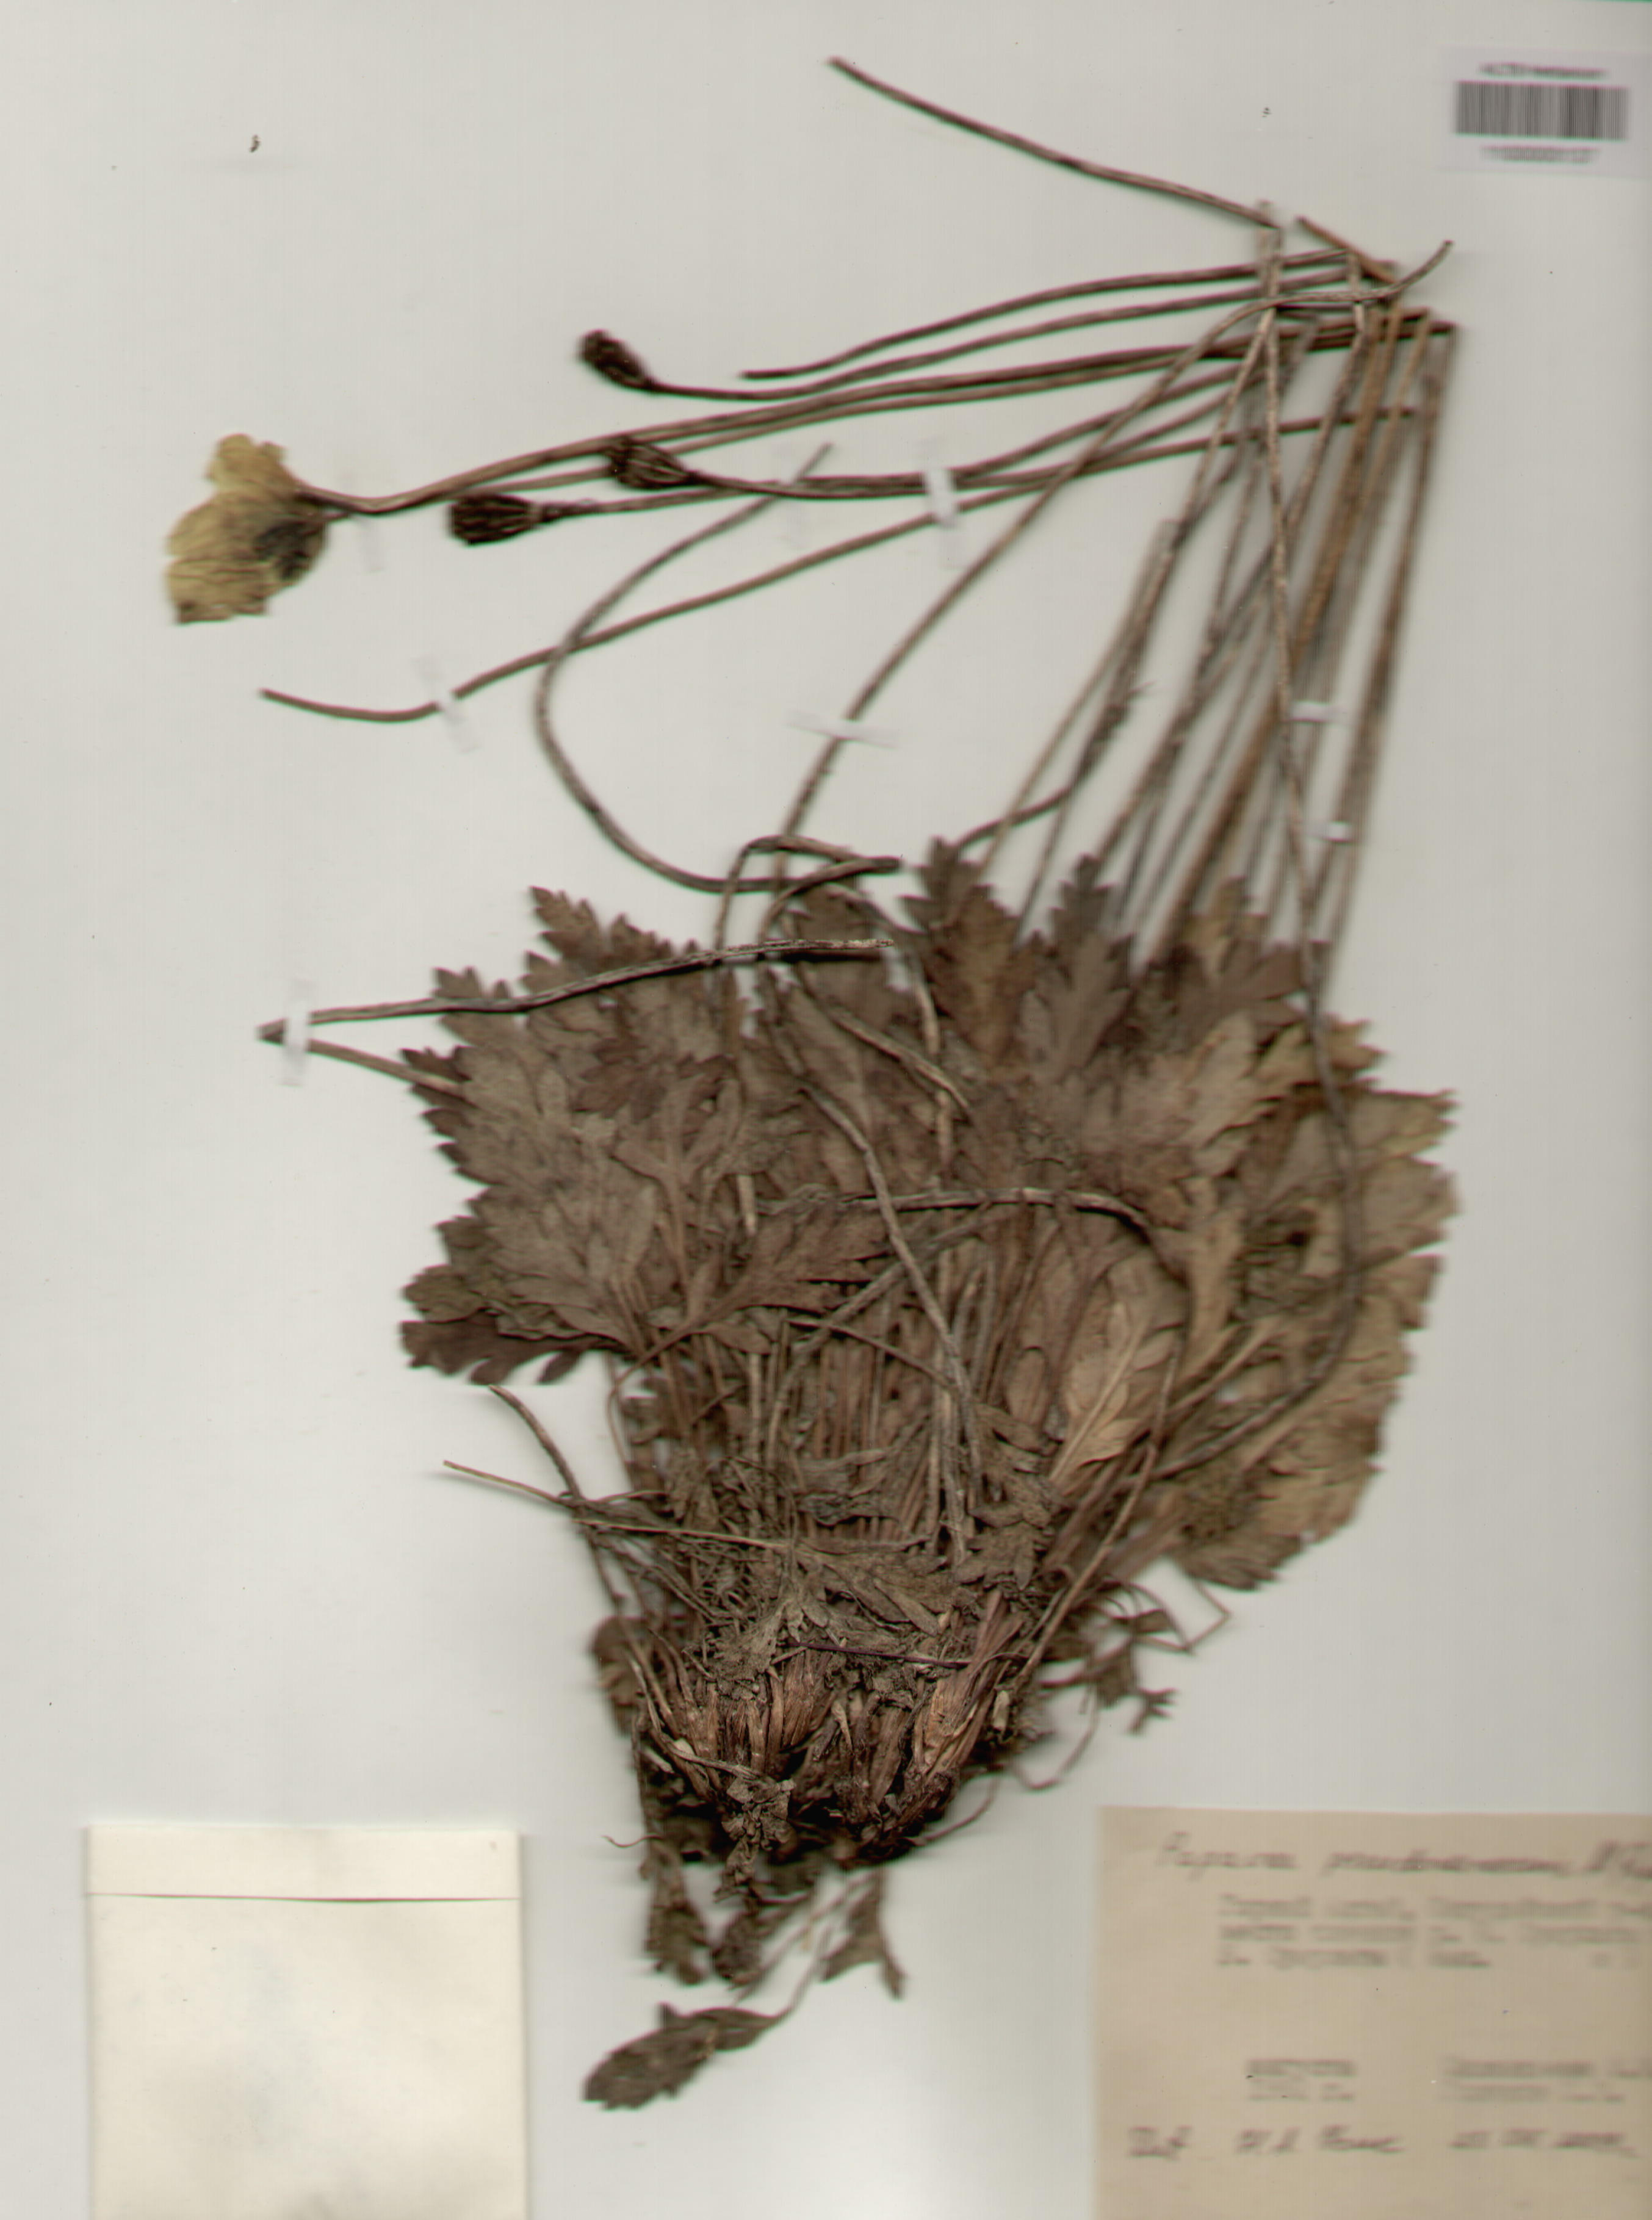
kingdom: Plantae
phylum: Tracheophyta
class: Magnoliopsida
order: Ranunculales
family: Papaveraceae
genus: Papaver
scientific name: Papaver canescens
